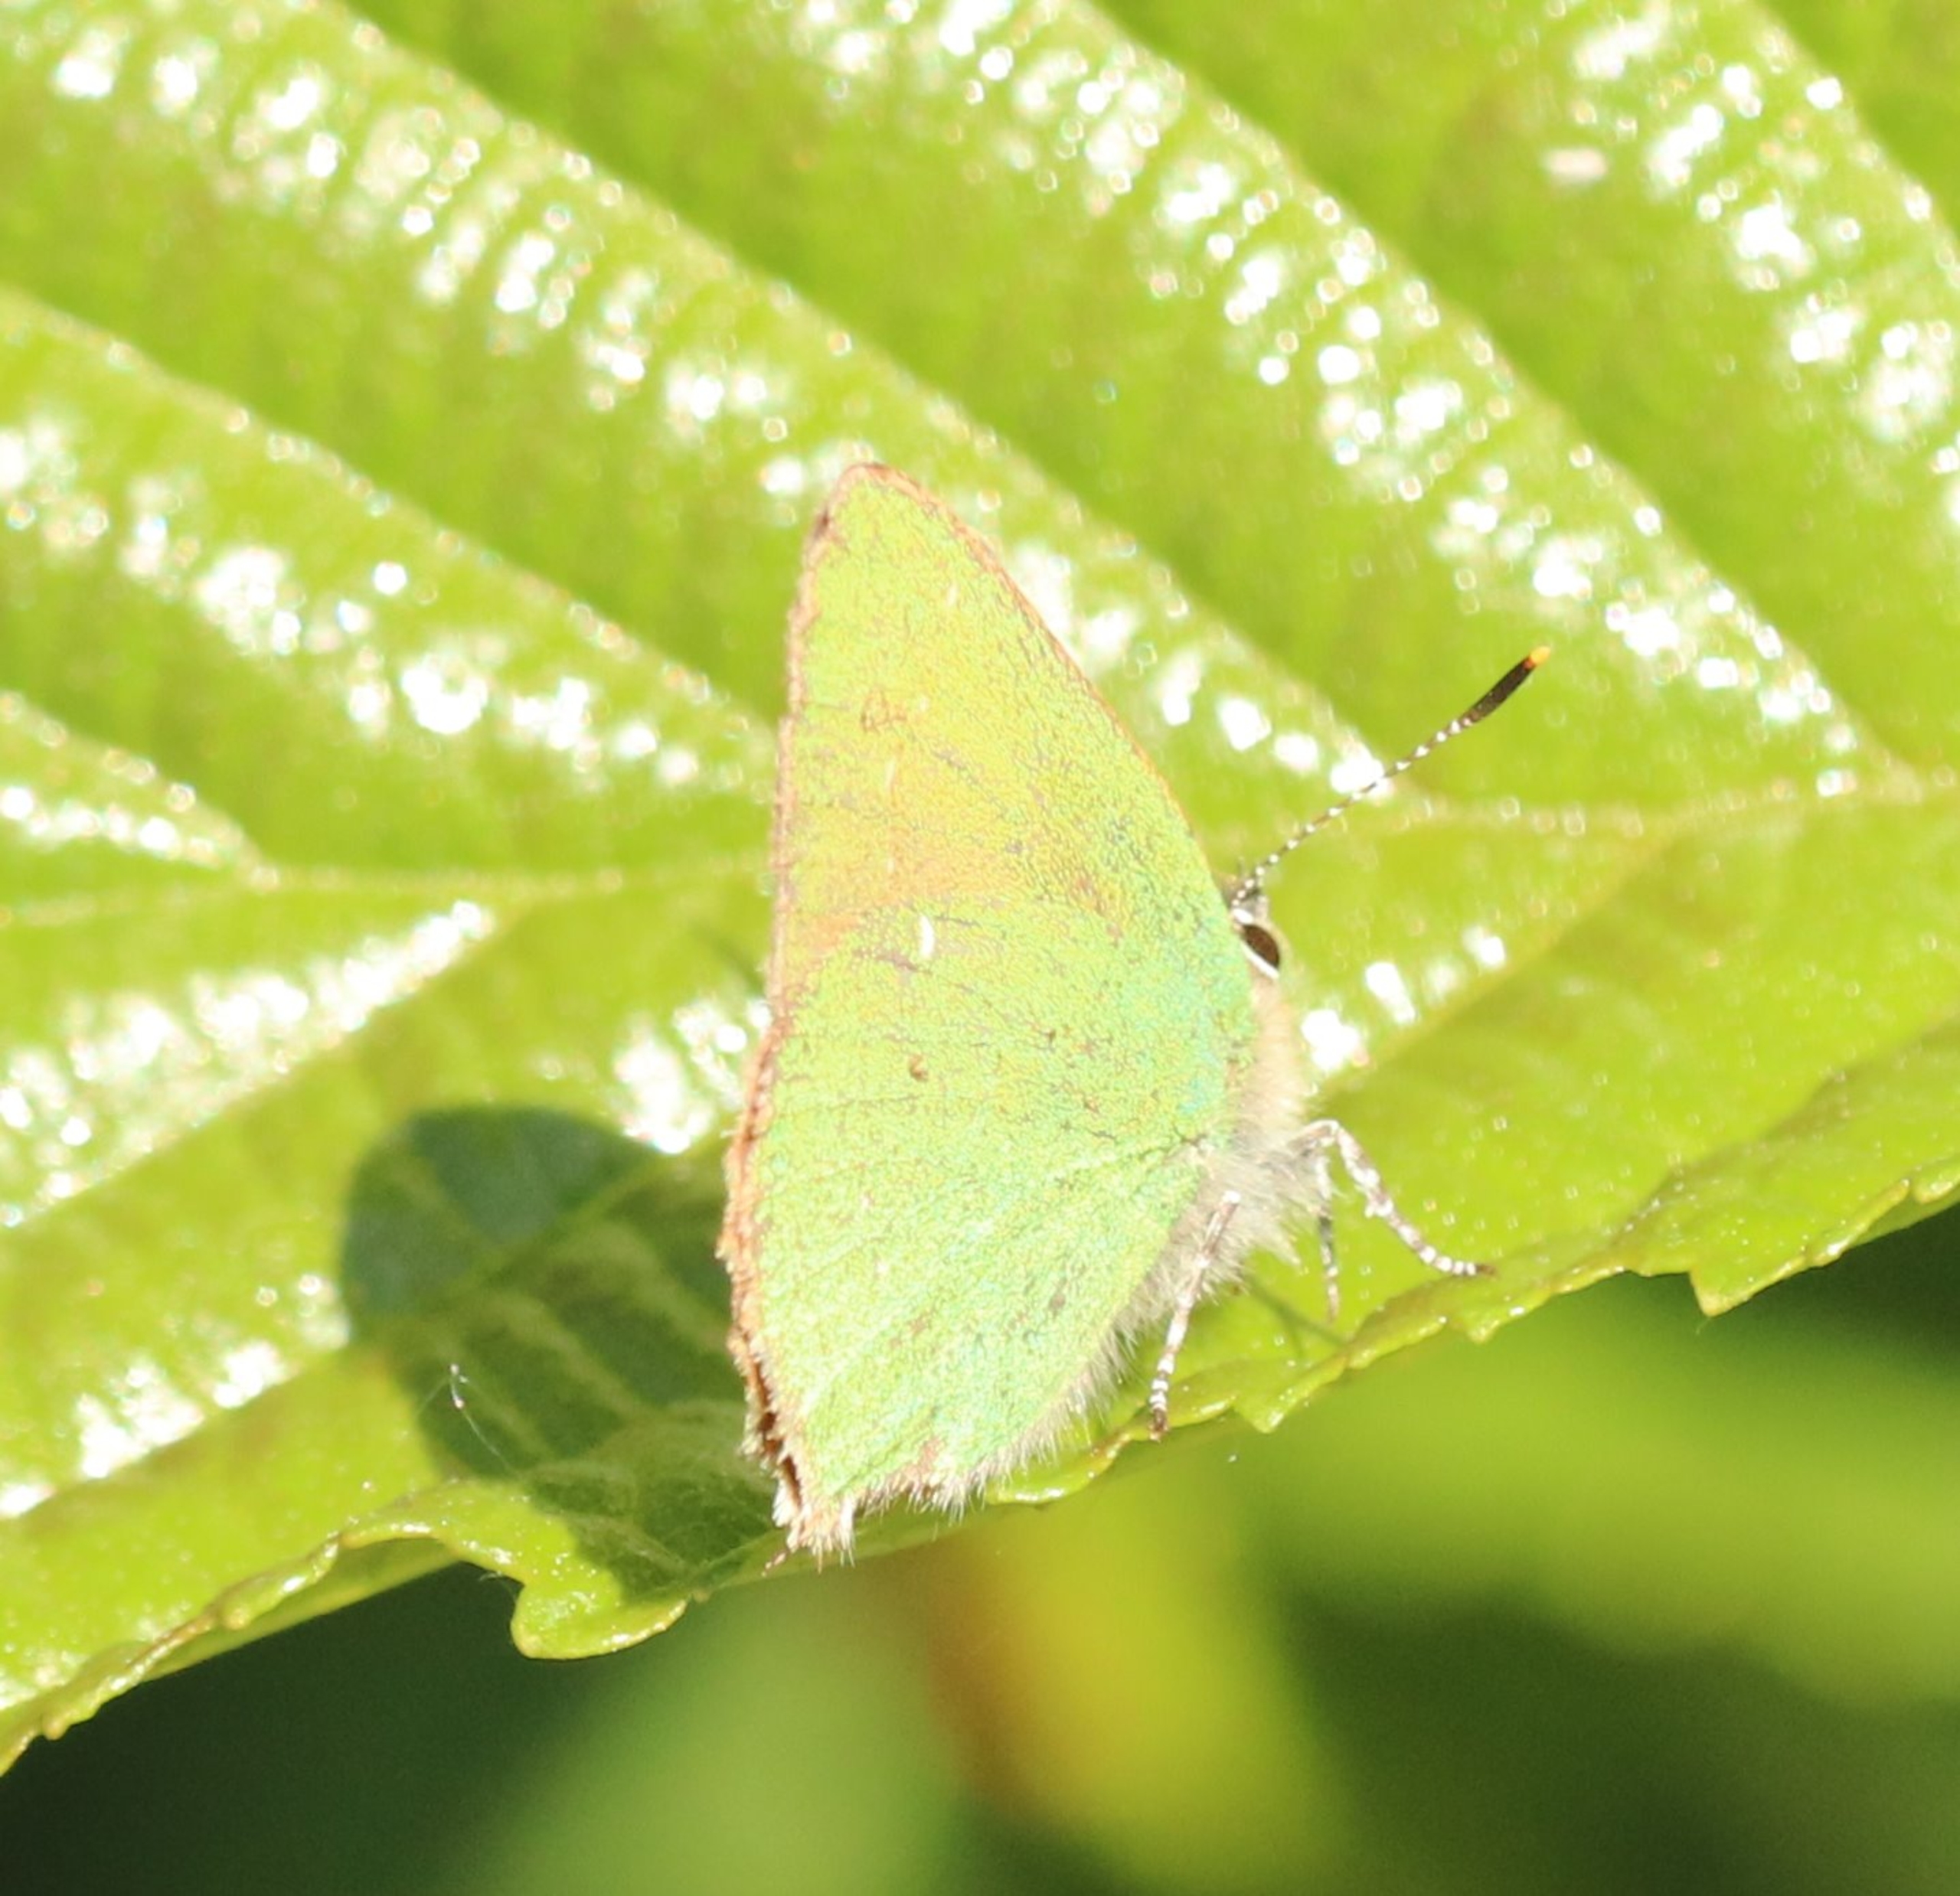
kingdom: Animalia
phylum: Arthropoda
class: Insecta
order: Lepidoptera
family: Lycaenidae
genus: Callophrys
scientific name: Callophrys rubi
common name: Grøn busksommerfugl
